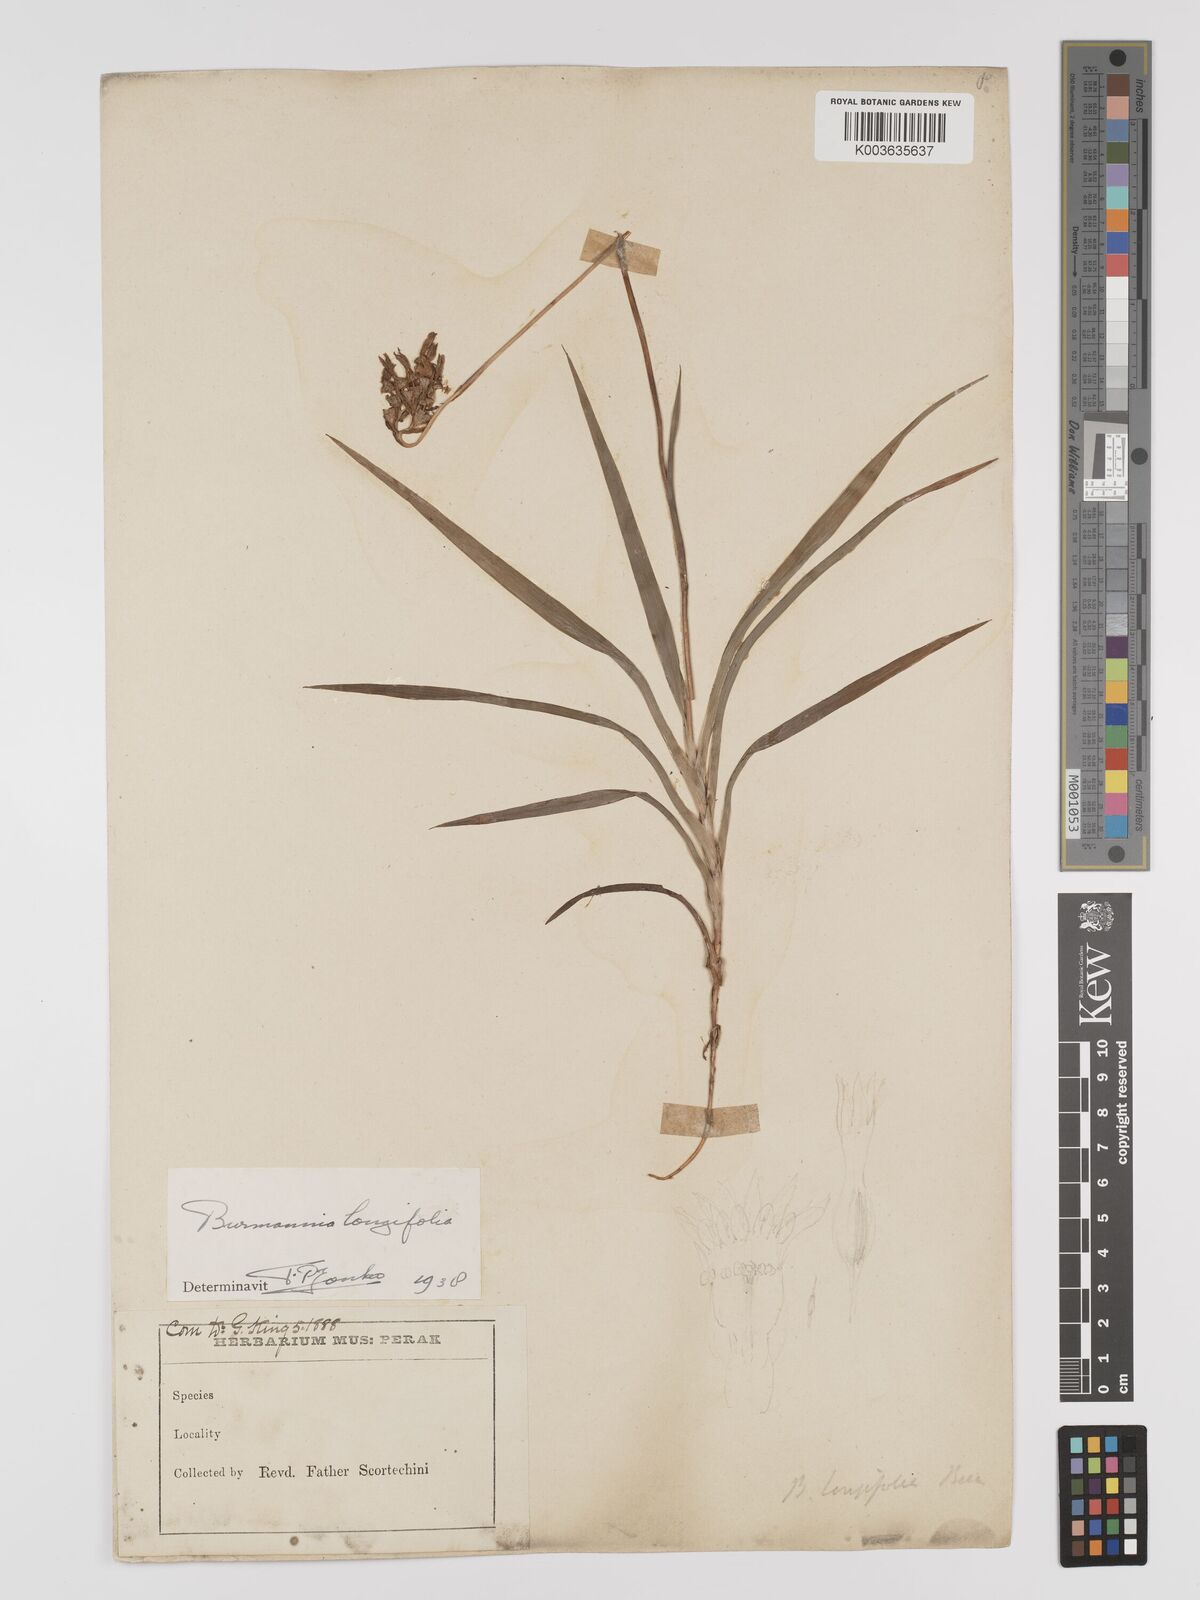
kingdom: Plantae
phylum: Tracheophyta
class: Liliopsida
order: Dioscoreales
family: Burmanniaceae
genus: Burmannia
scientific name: Burmannia longifolia
